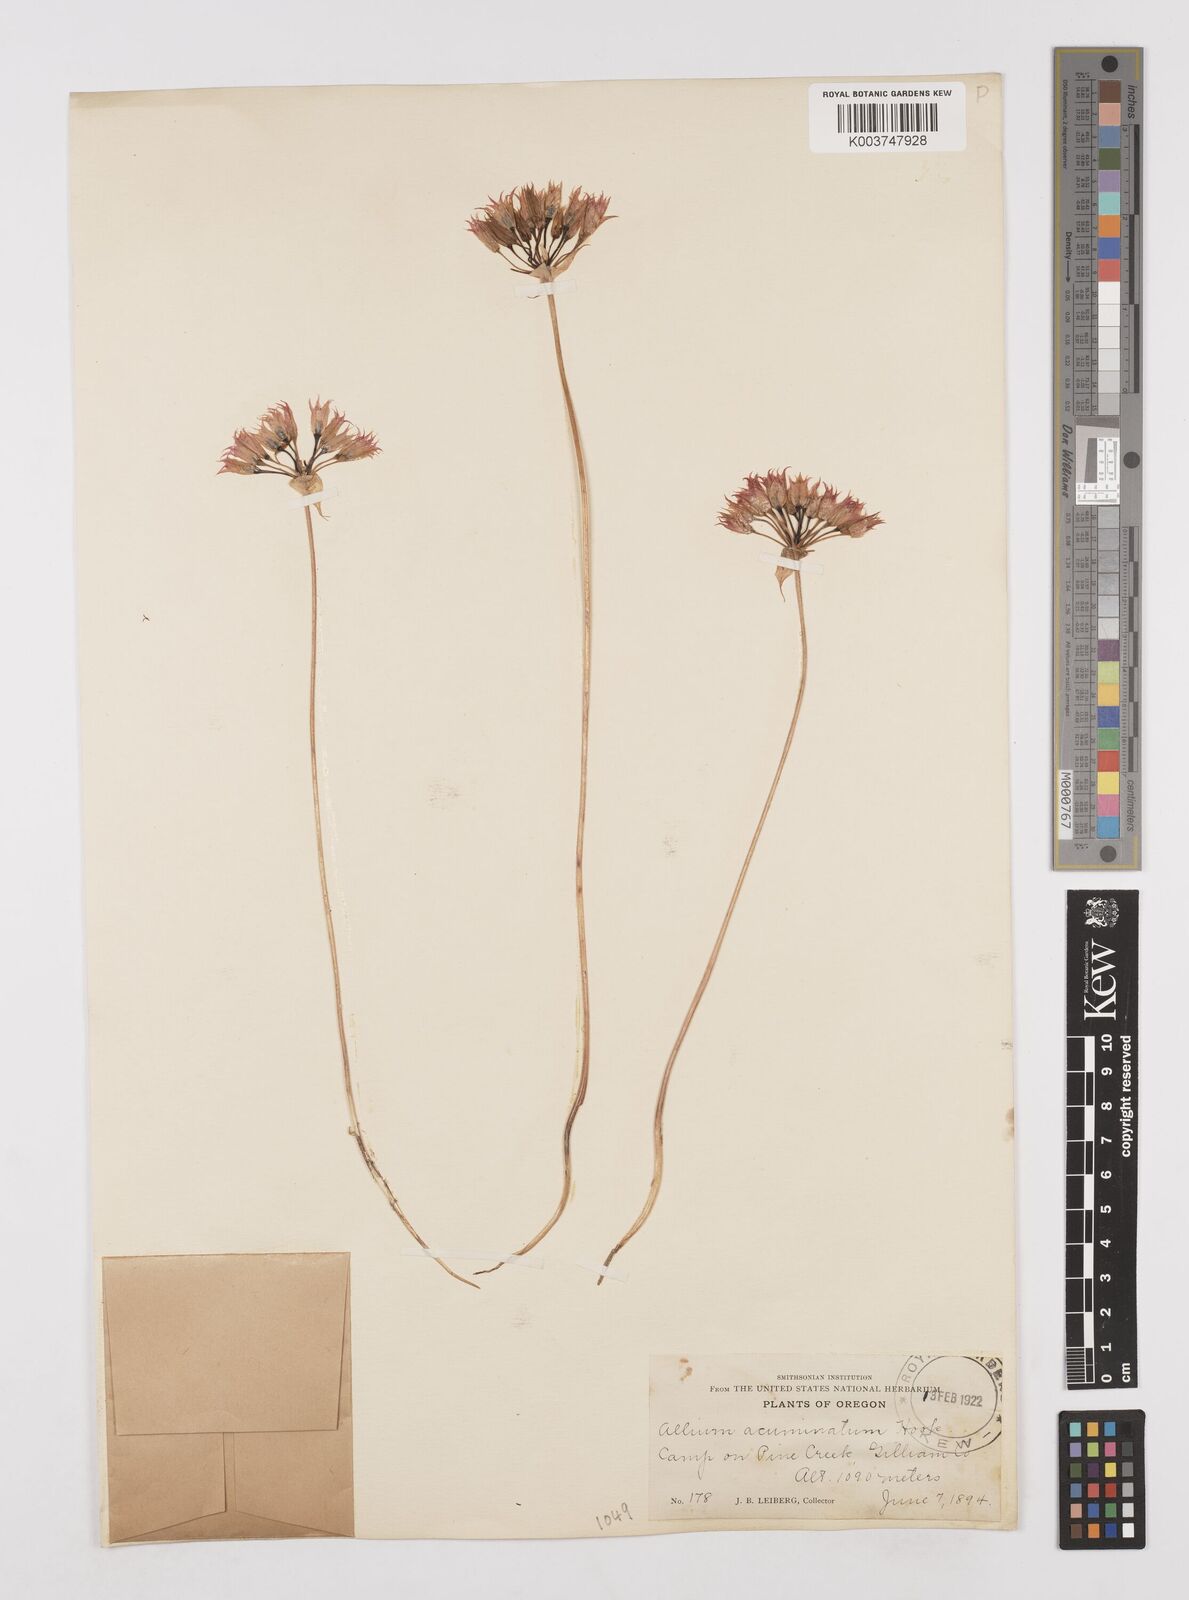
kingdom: Plantae
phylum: Tracheophyta
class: Liliopsida
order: Asparagales
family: Amaryllidaceae
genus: Allium
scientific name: Allium acuminatum
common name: Hooker's onion
